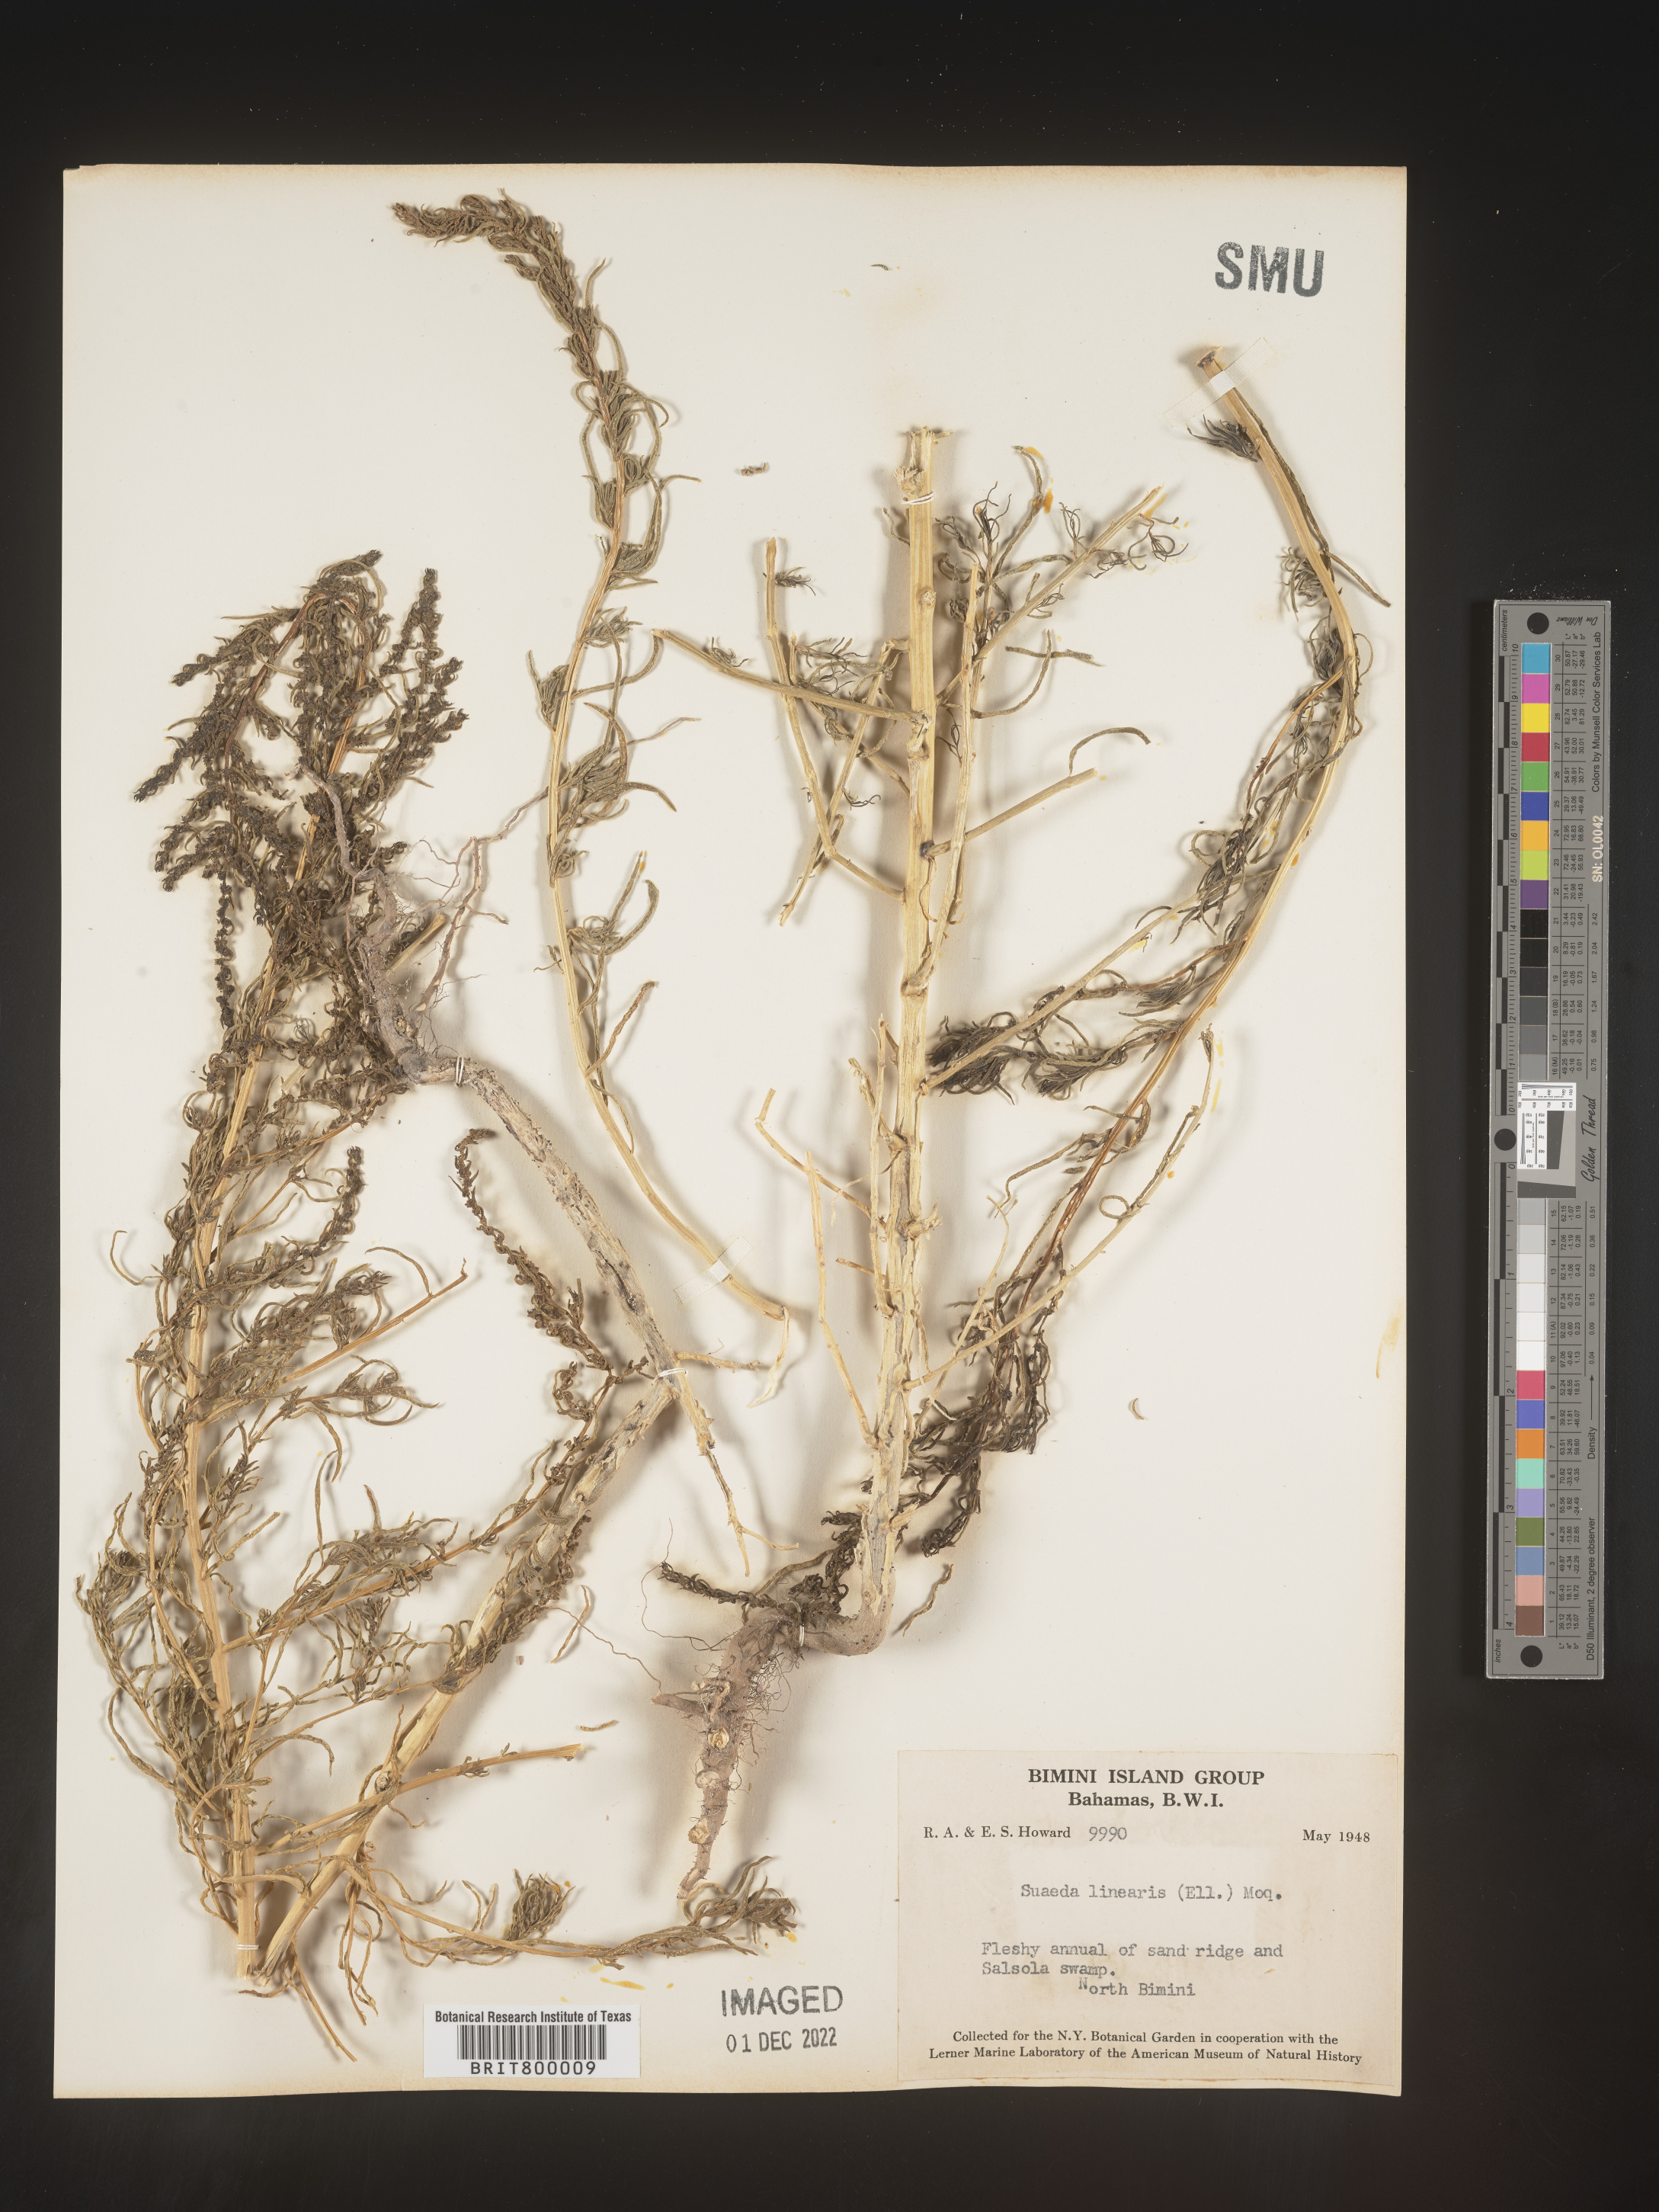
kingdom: Plantae
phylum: Tracheophyta
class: Magnoliopsida
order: Caryophyllales
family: Amaranthaceae
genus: Suaeda
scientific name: Suaeda
